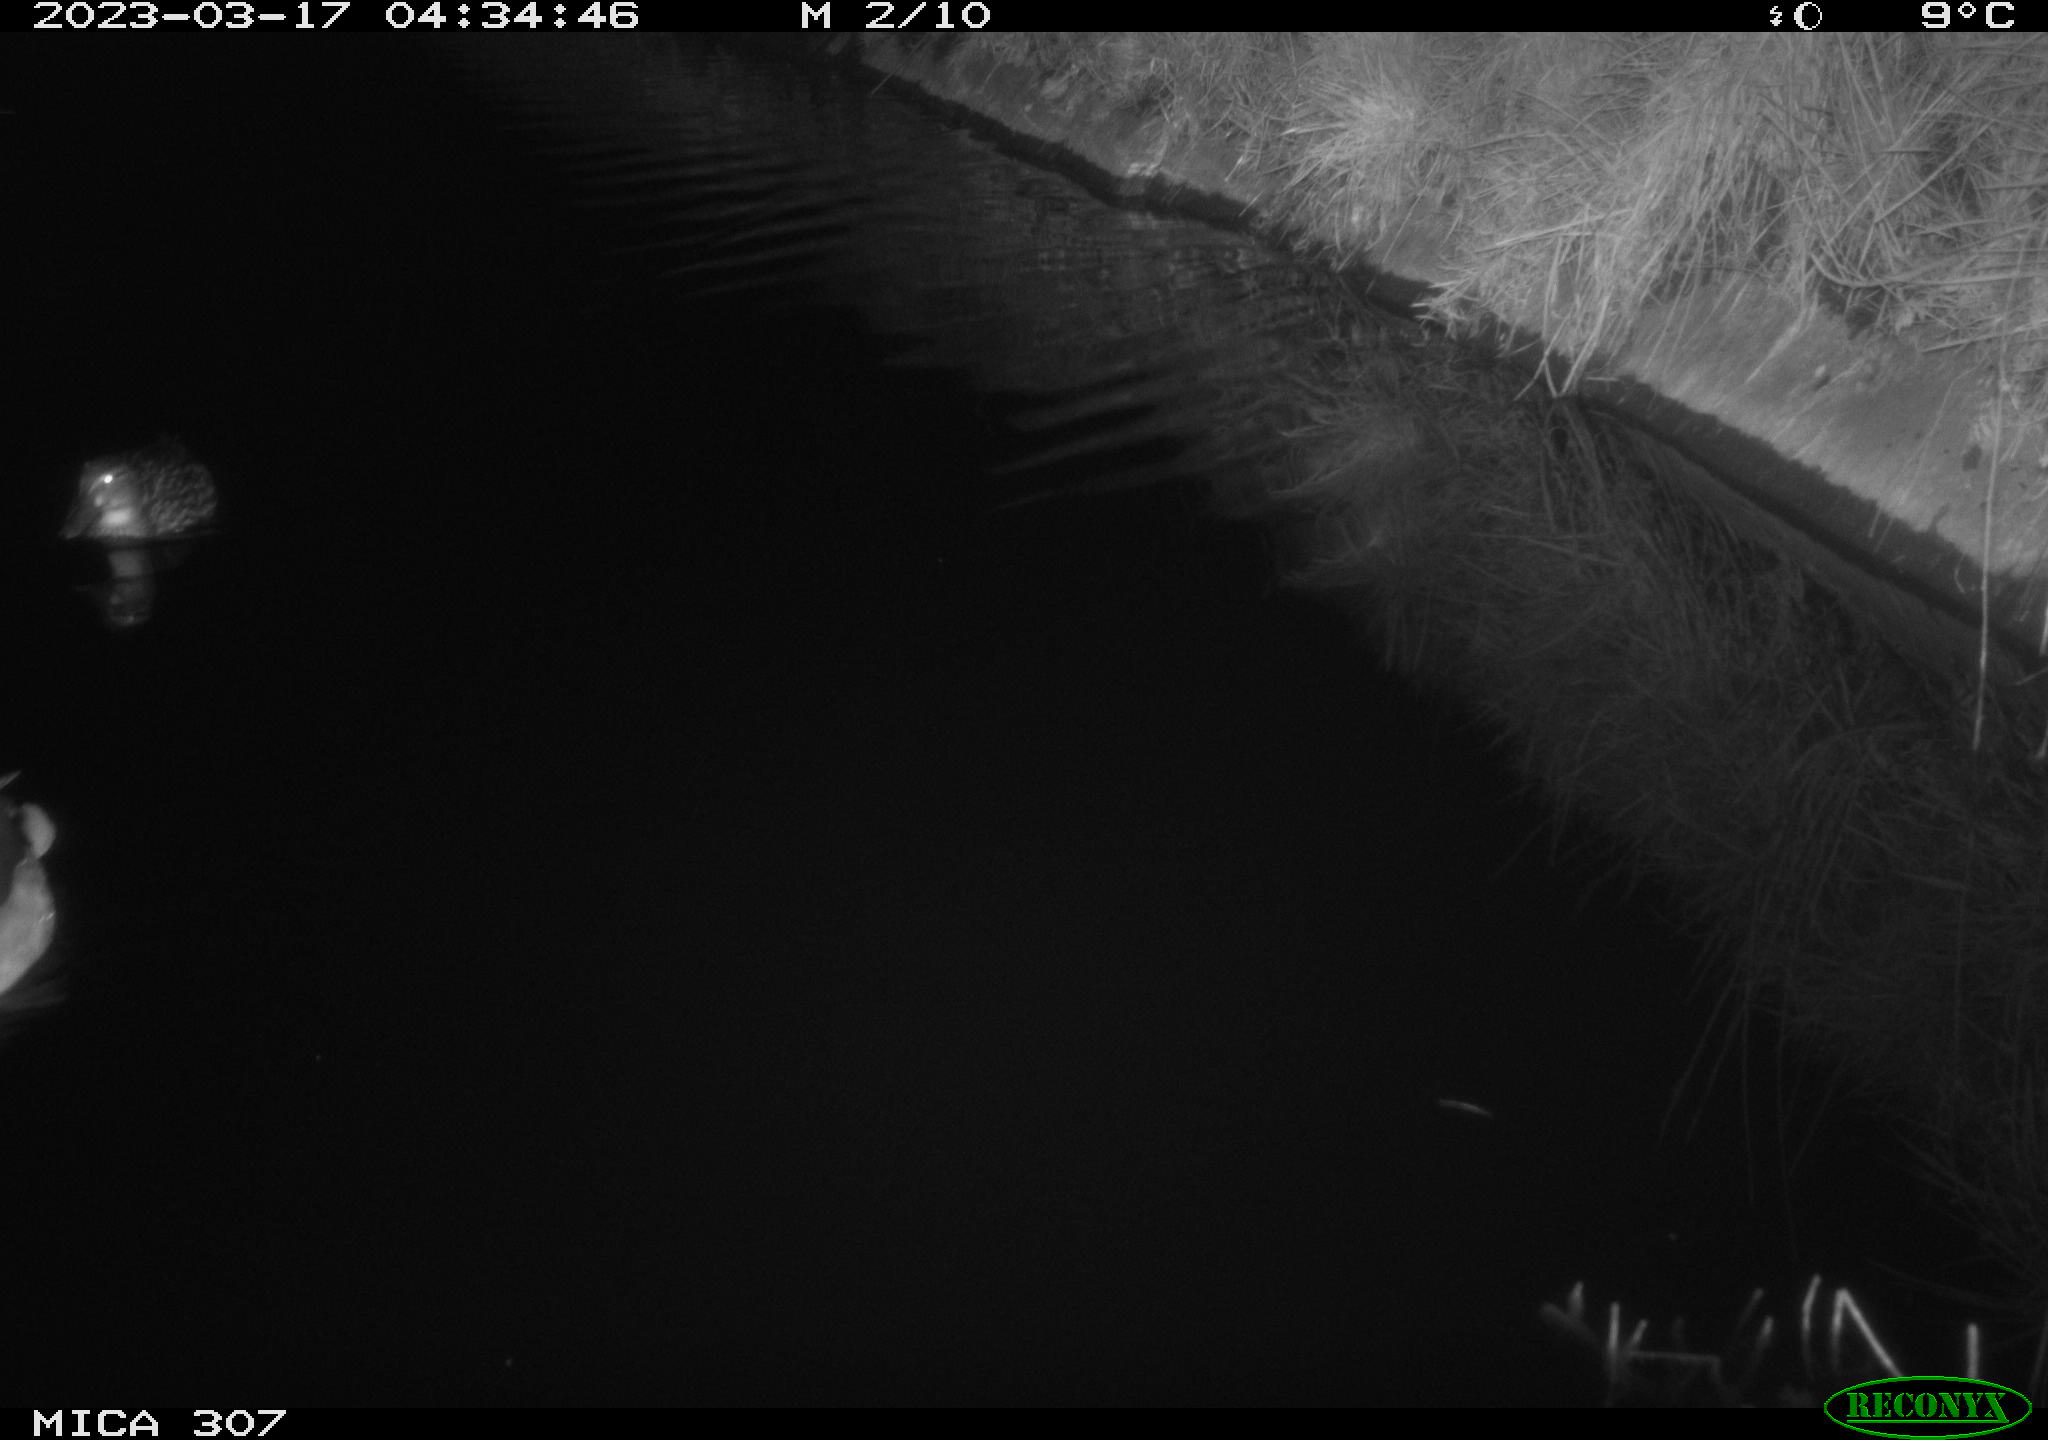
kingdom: Animalia
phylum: Chordata
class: Aves
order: Anseriformes
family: Anatidae
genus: Anas
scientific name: Anas
